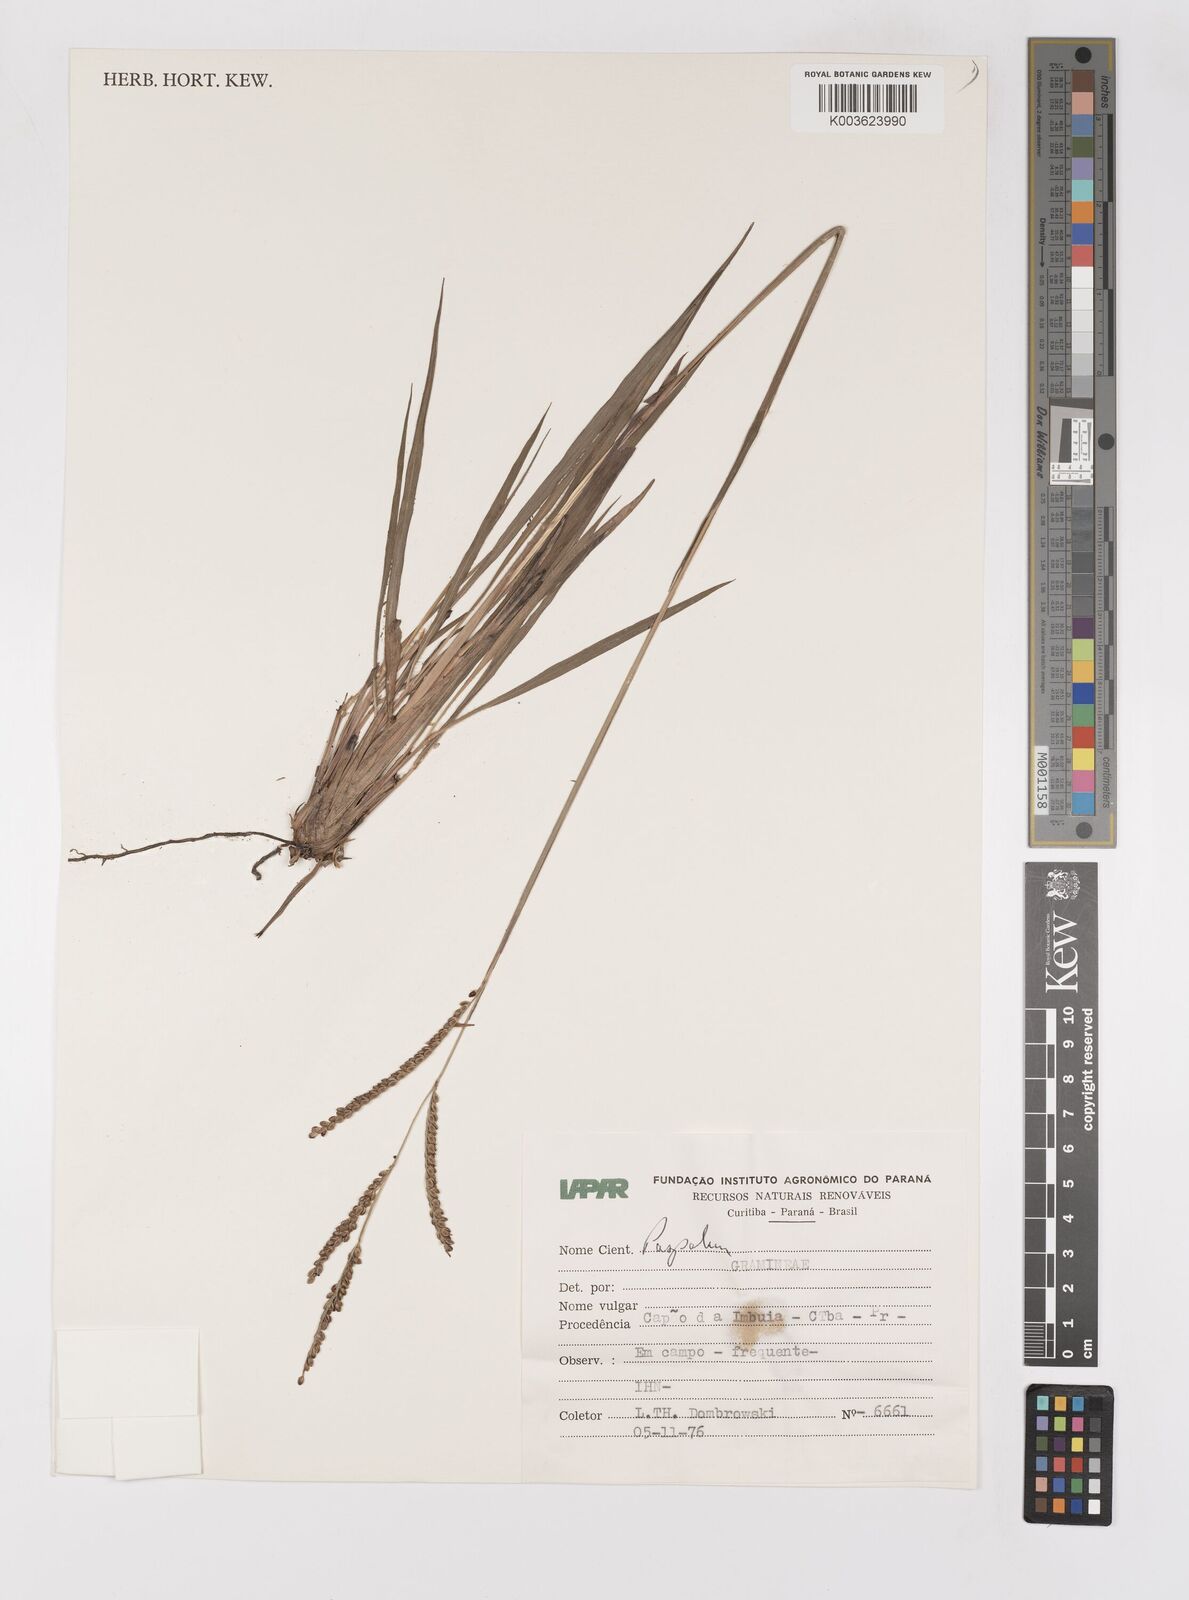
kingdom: Plantae
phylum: Tracheophyta
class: Liliopsida
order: Poales
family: Poaceae
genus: Paspalum
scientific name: Paspalum glaucescens
